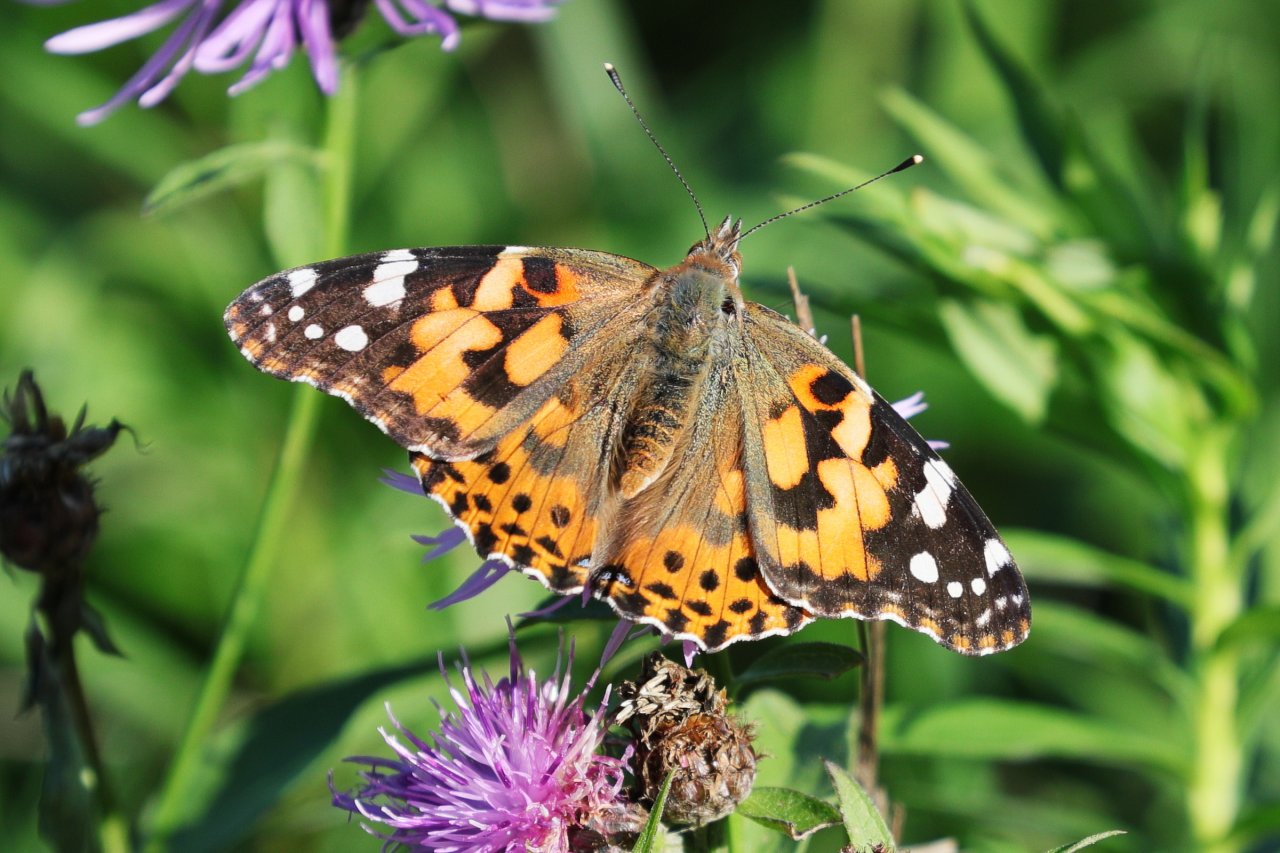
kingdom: Animalia
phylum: Arthropoda
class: Insecta
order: Lepidoptera
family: Nymphalidae
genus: Vanessa
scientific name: Vanessa cardui
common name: Painted Lady
